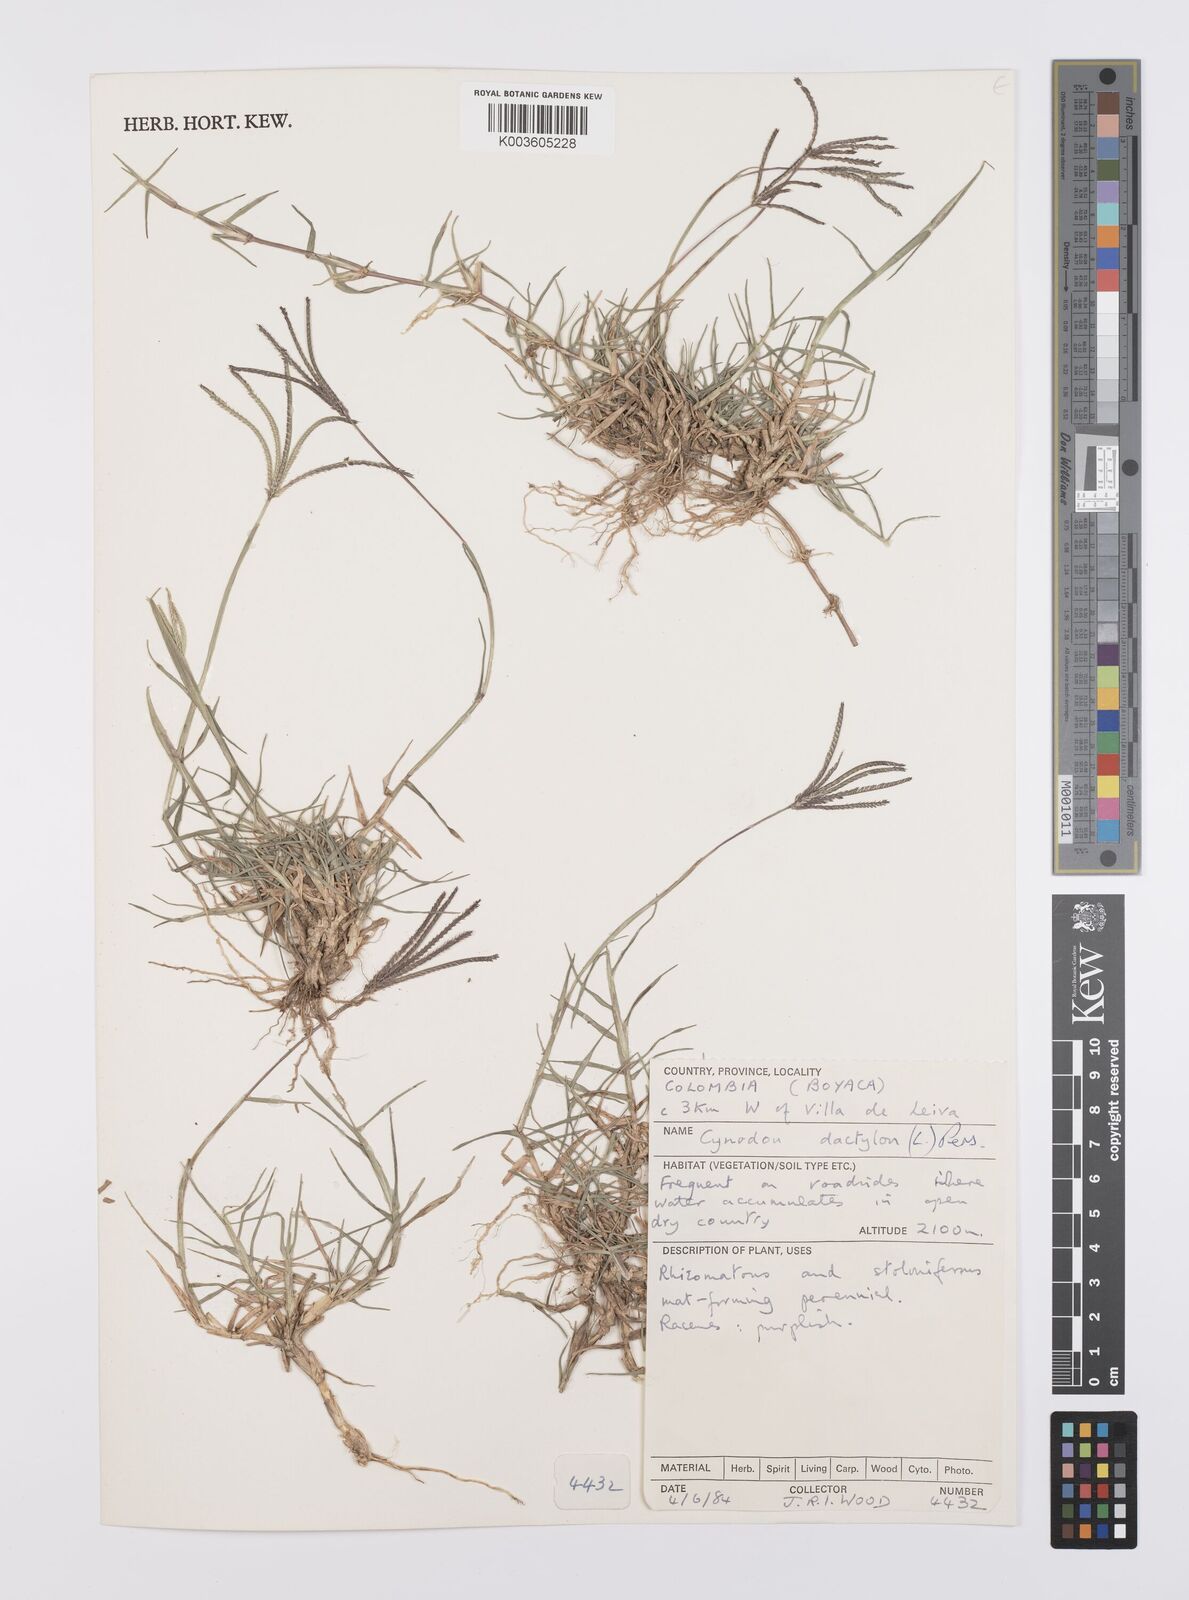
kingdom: Plantae
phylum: Tracheophyta
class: Liliopsida
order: Poales
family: Poaceae
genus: Cynodon
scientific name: Cynodon dactylon
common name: Bermuda grass
